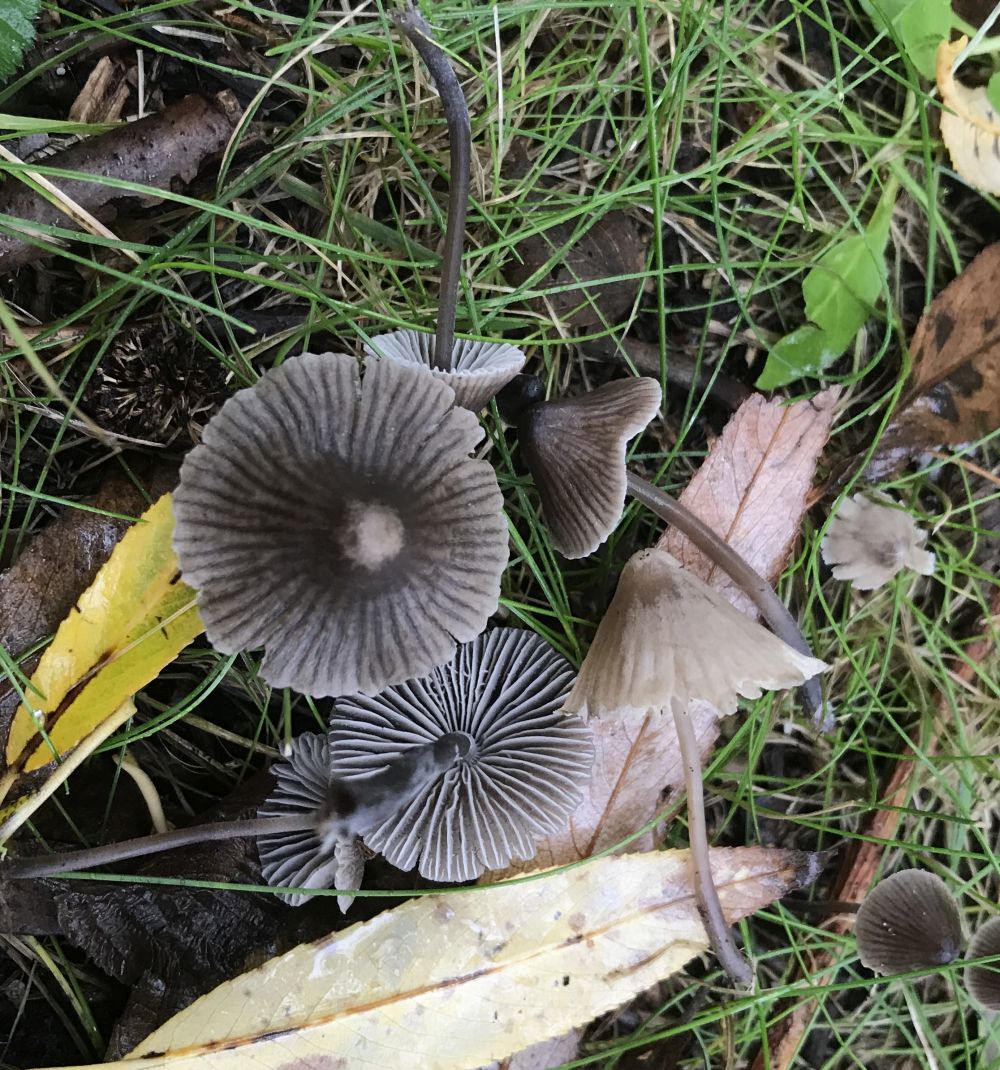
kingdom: Fungi
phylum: Basidiomycota
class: Agaricomycetes
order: Agaricales
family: Mycenaceae
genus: Mycena
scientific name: Mycena aetites
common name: plæne-huesvamp
